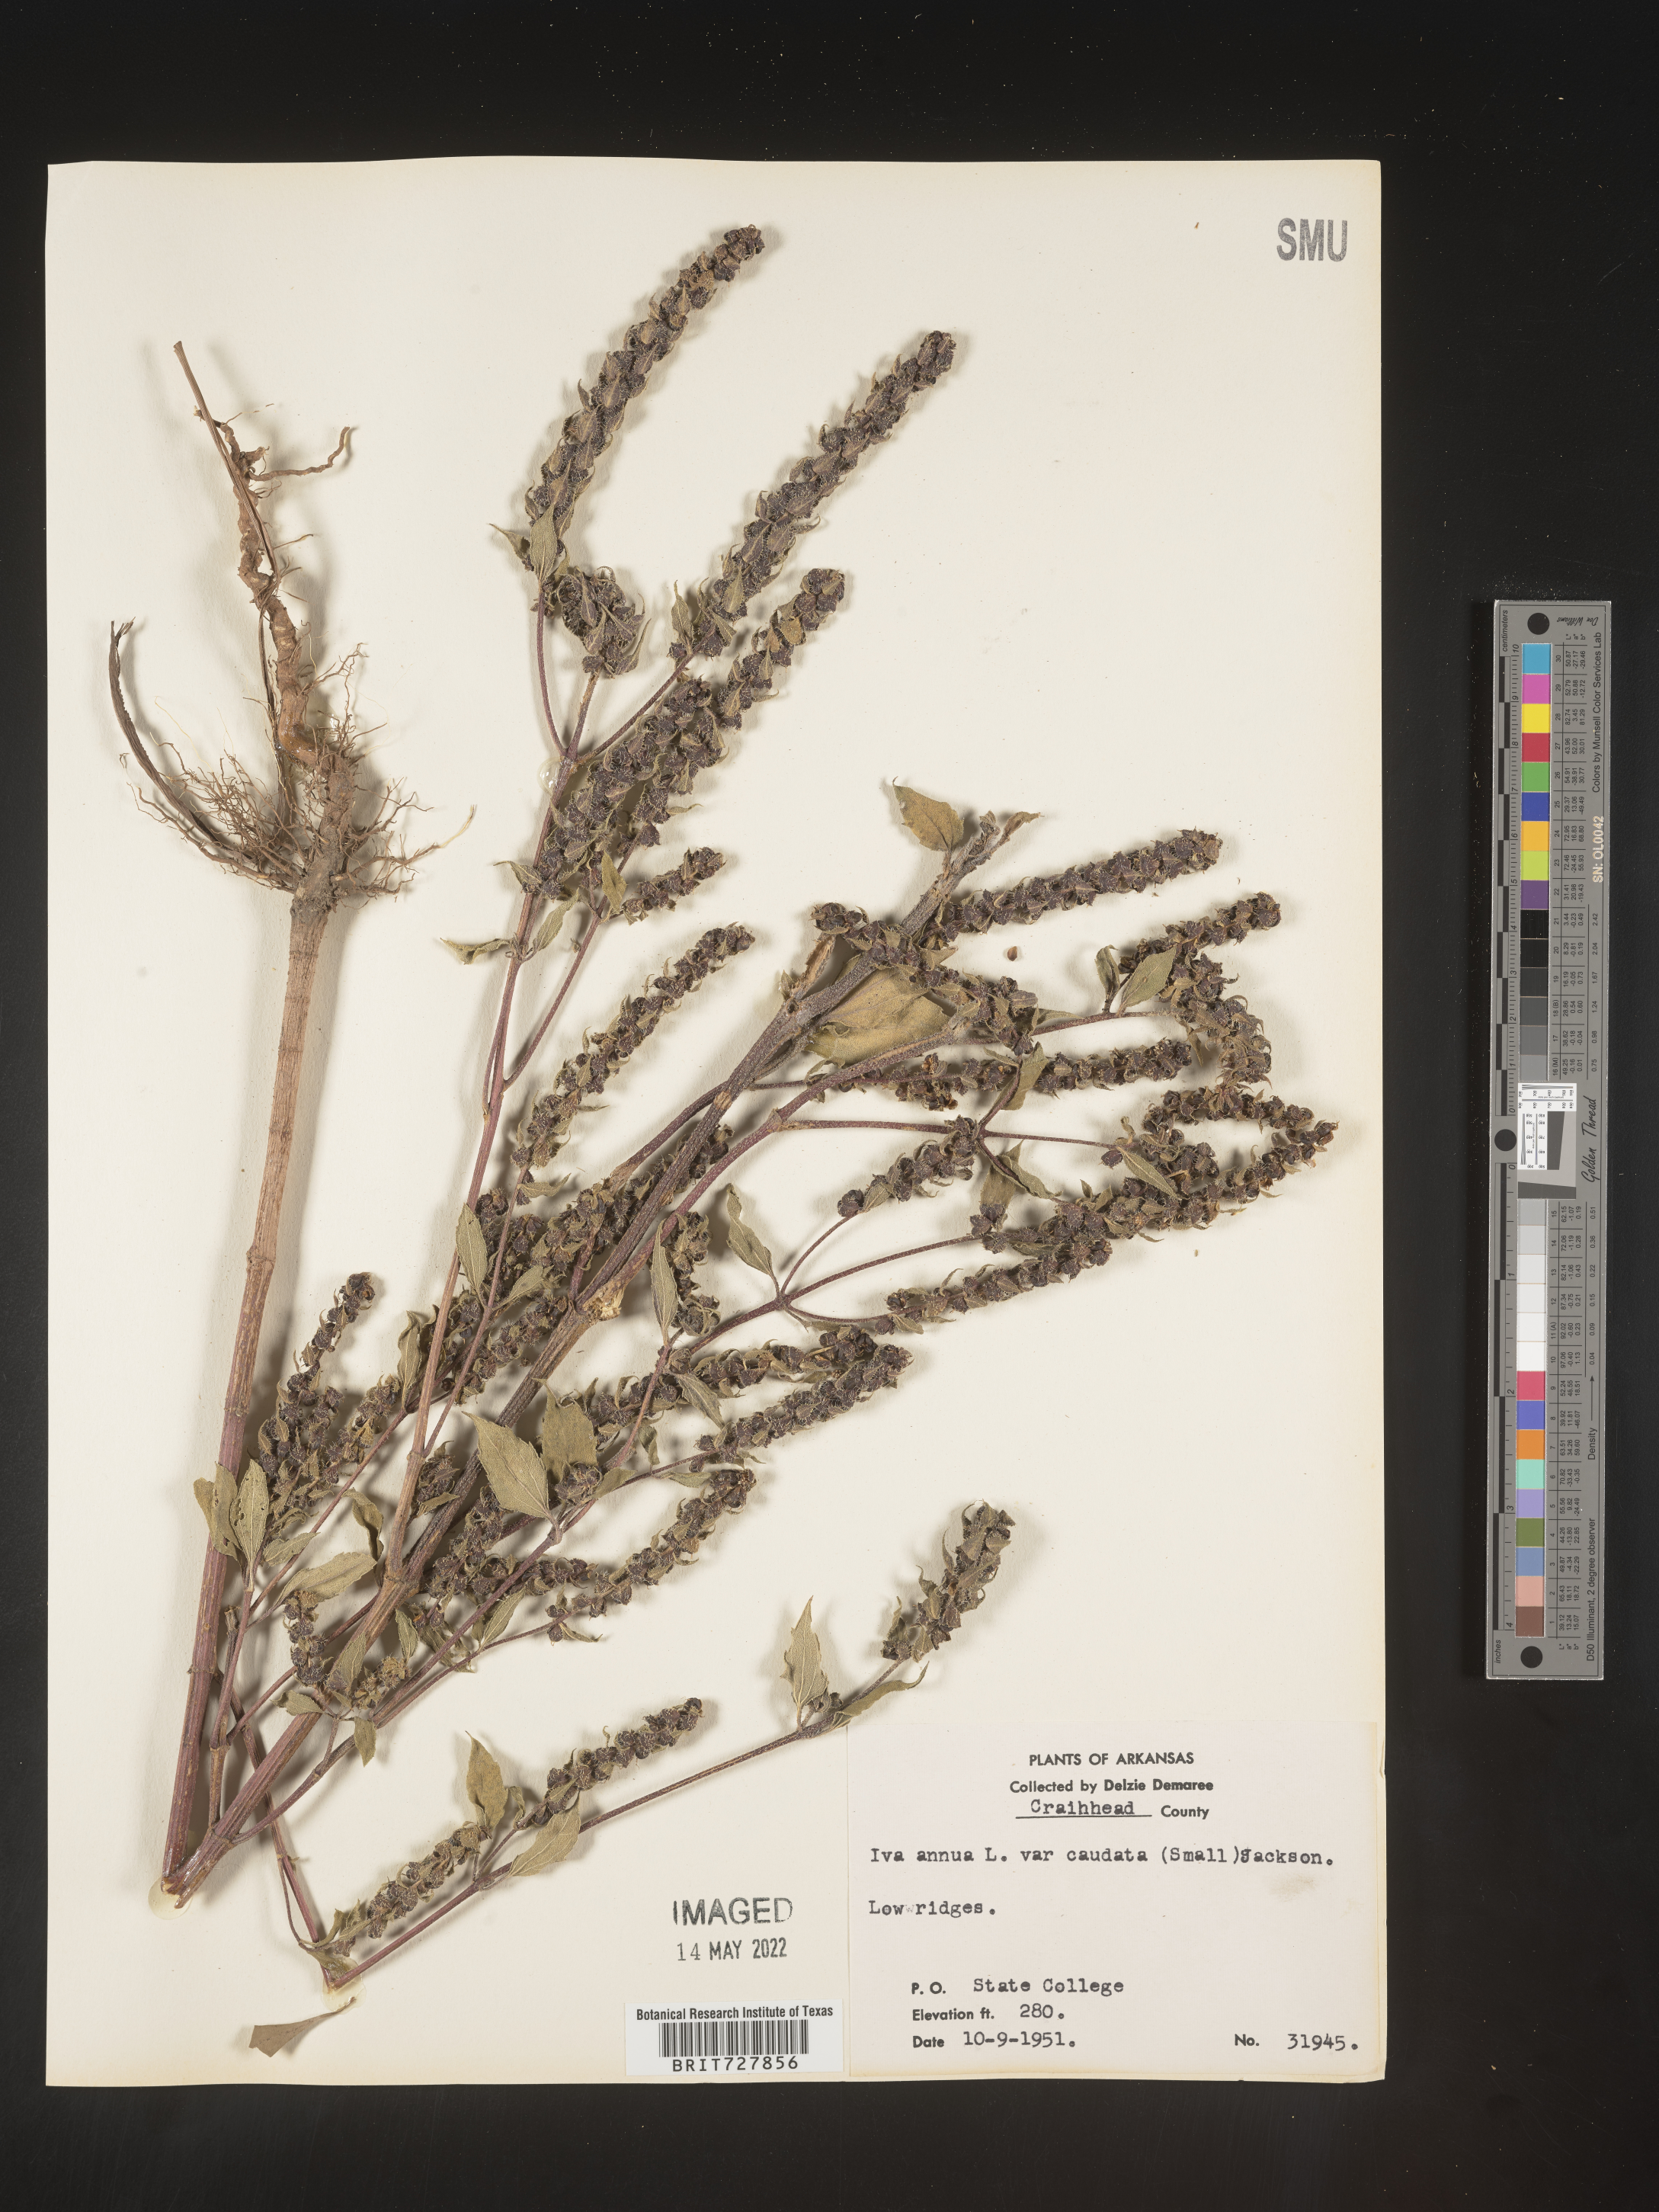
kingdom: Plantae
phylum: Tracheophyta
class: Magnoliopsida
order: Asterales
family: Asteraceae
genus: Iva
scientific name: Iva annua
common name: Marsh-elder
